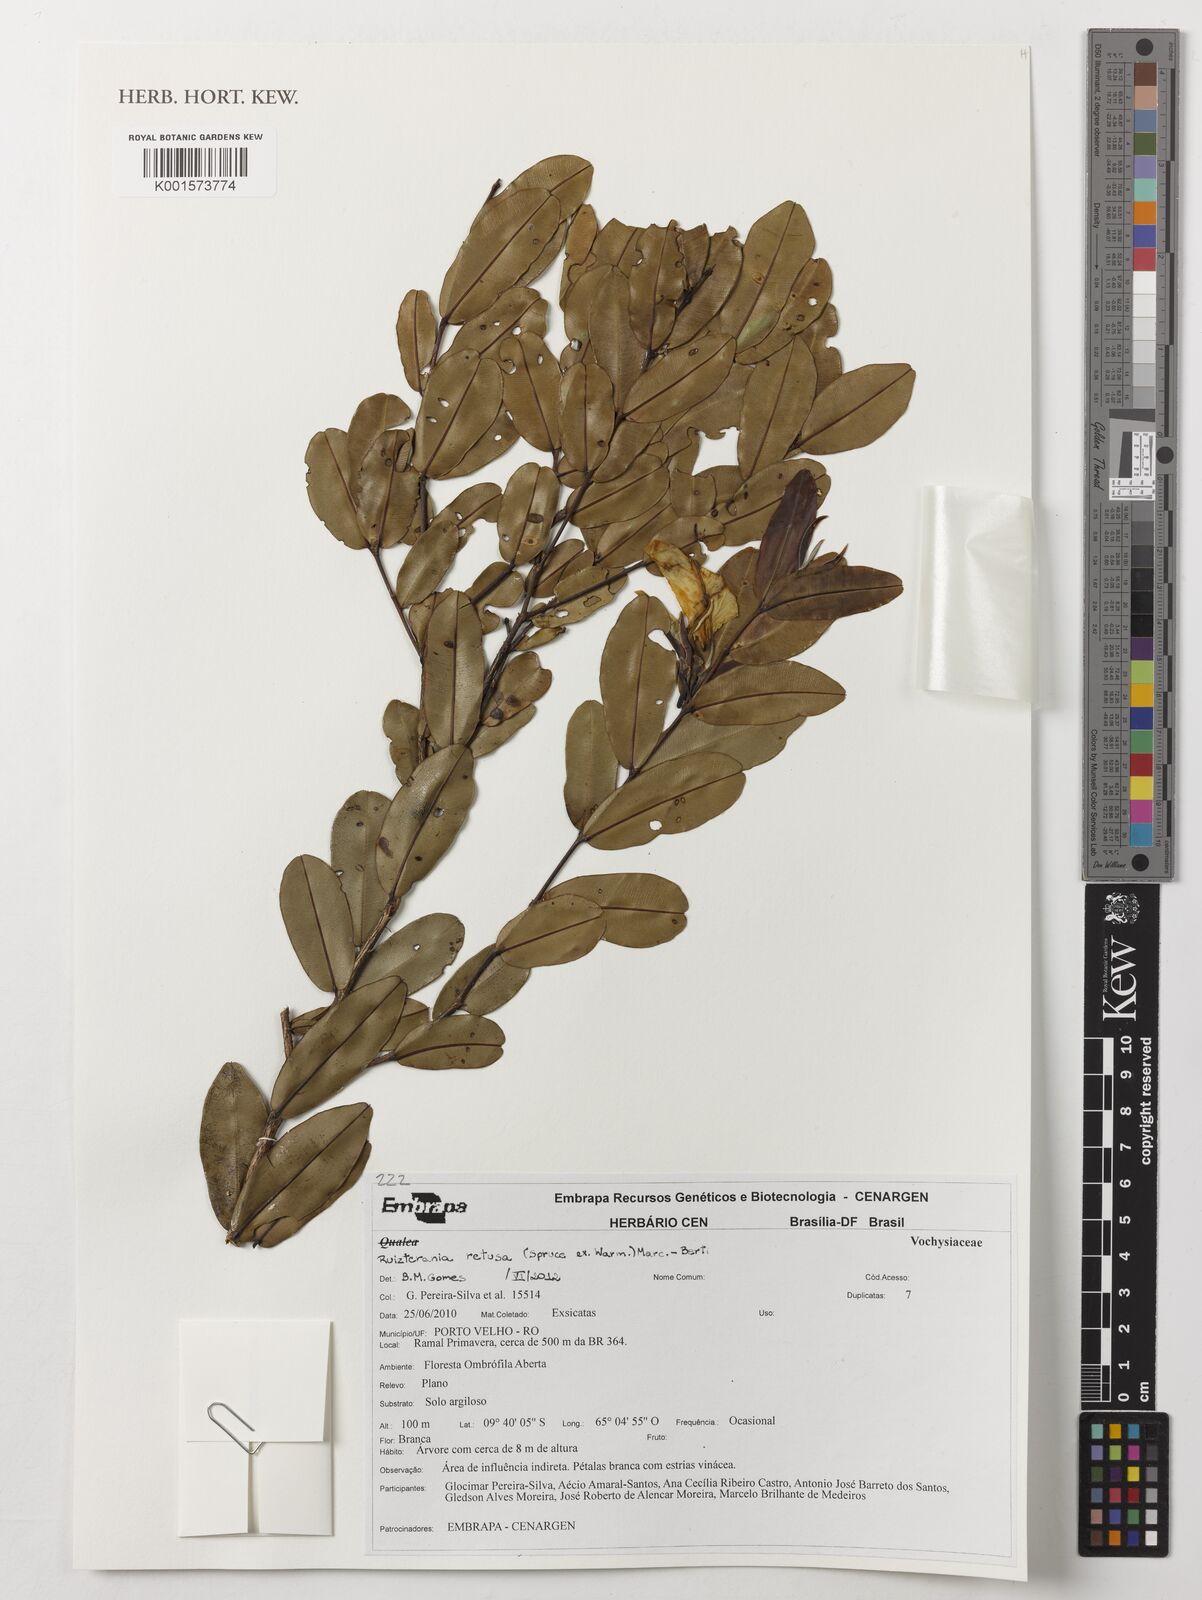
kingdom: Plantae
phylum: Tracheophyta
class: Magnoliopsida
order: Myrtales
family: Vochysiaceae
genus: Ruizterania
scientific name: Ruizterania retusa
